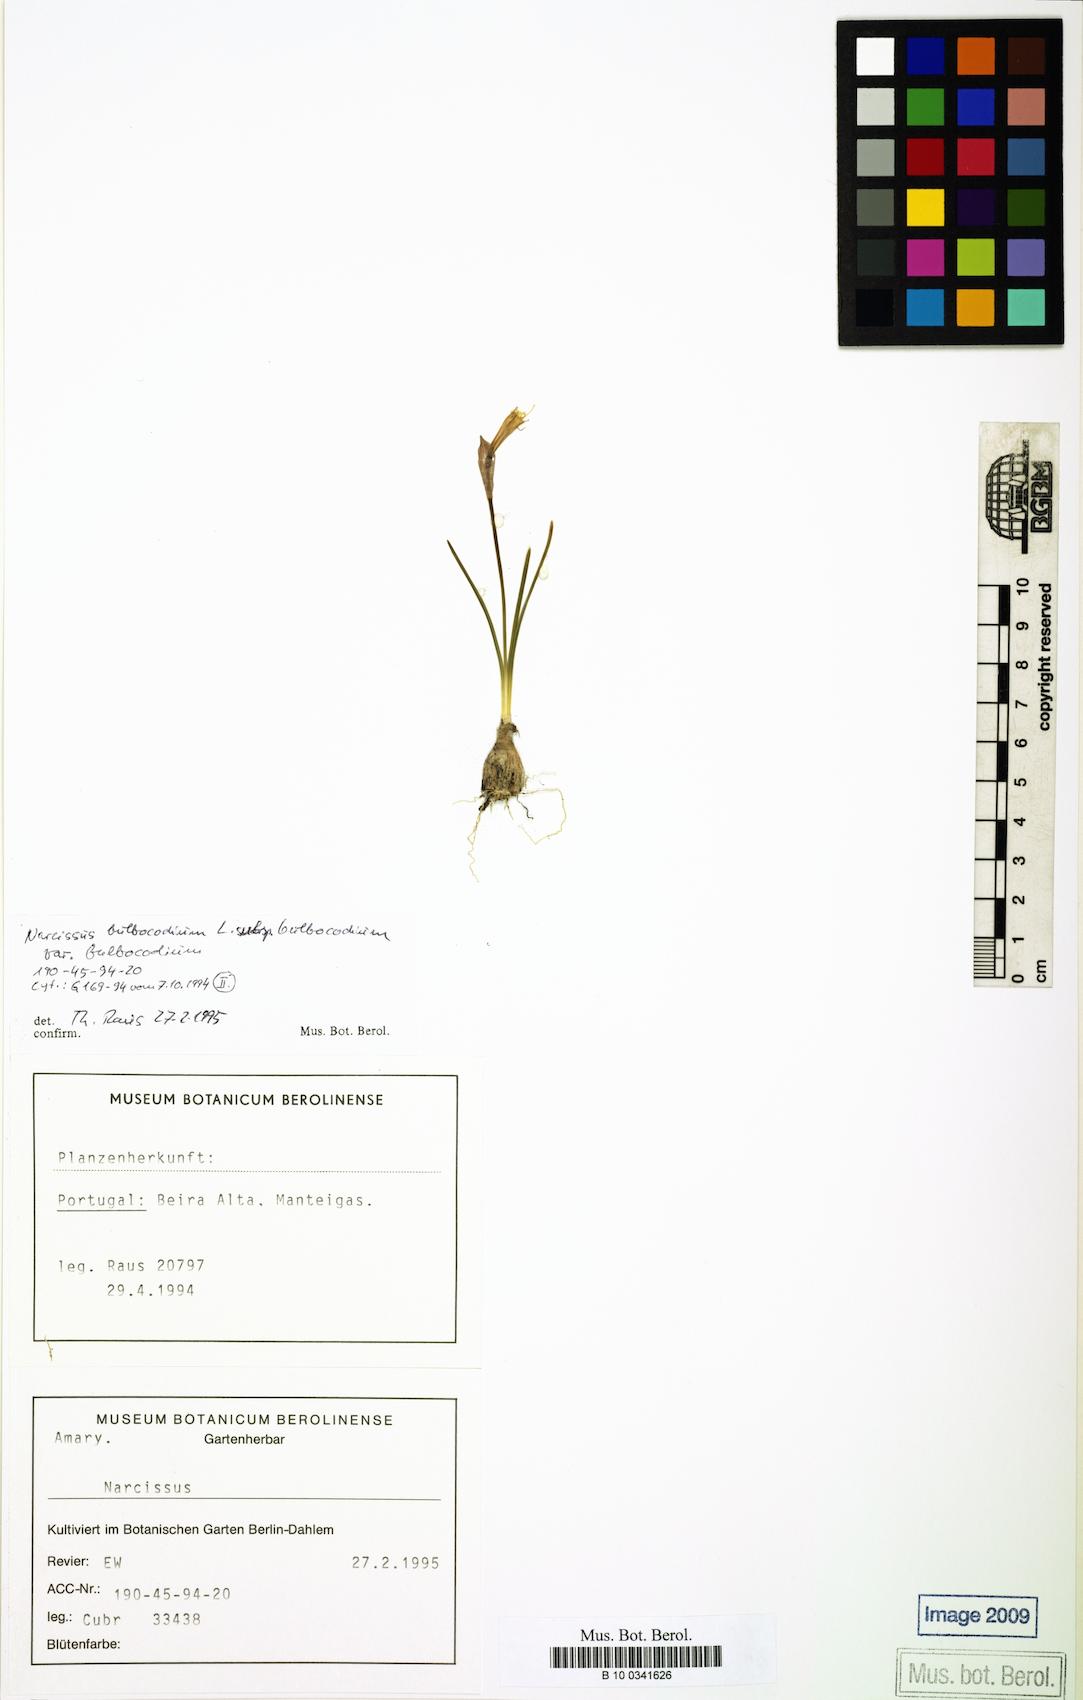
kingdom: Plantae
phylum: Tracheophyta
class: Liliopsida
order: Asparagales
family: Amaryllidaceae
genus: Narcissus
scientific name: Narcissus bulbocodium
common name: Hoop-petticoat daffodil
